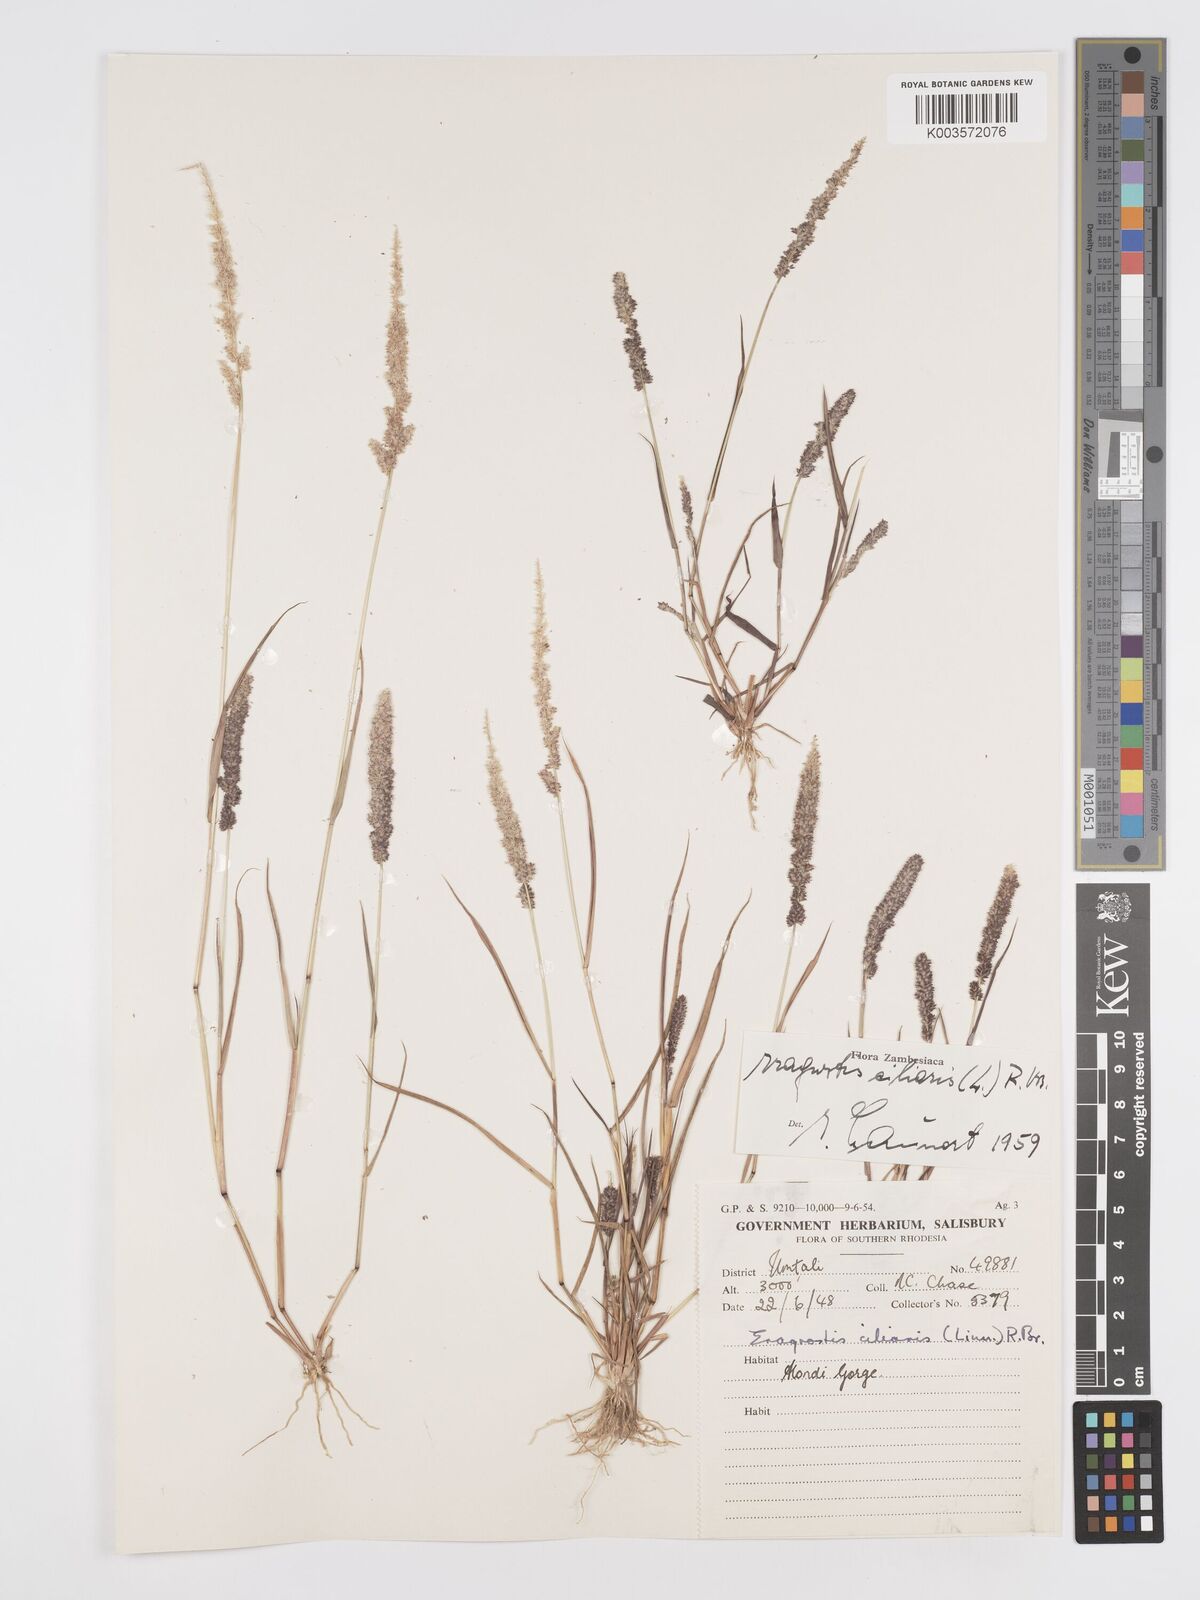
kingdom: Plantae
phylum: Tracheophyta
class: Liliopsida
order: Poales
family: Poaceae
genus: Eragrostis
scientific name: Eragrostis ciliaris
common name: Gophertail lovegrass
